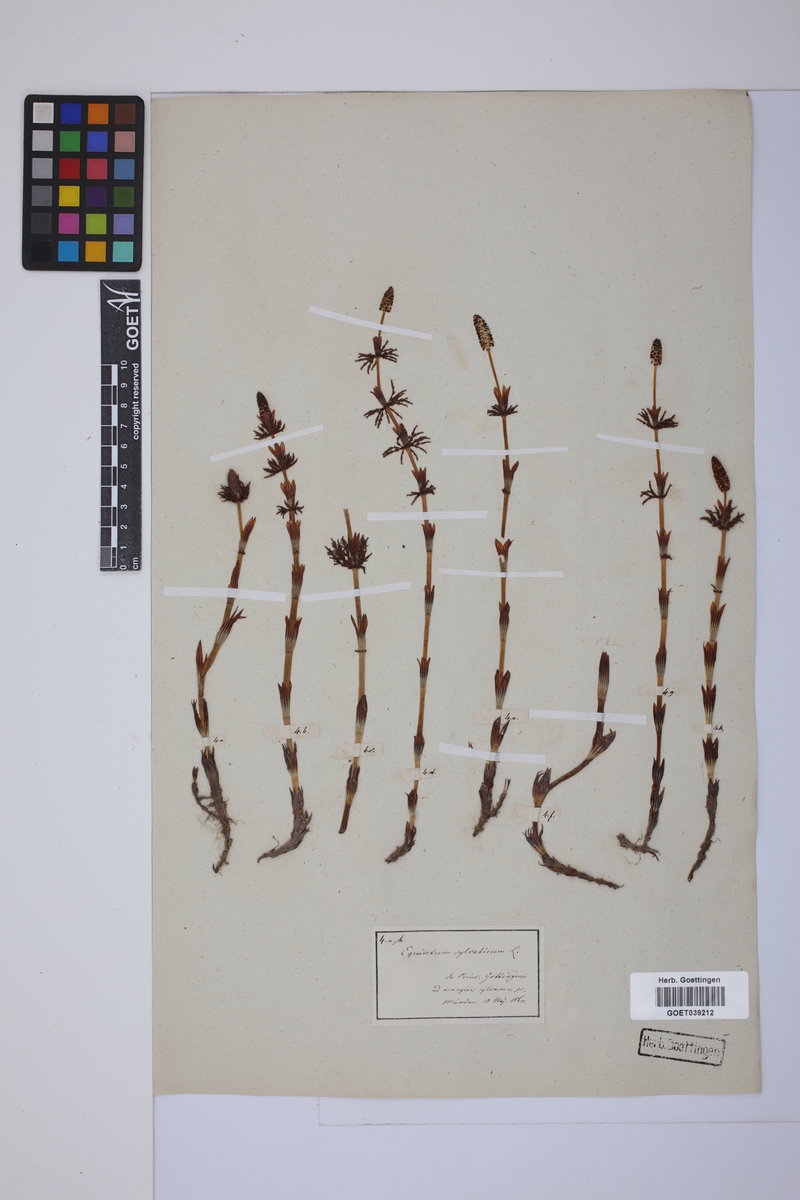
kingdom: Plantae
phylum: Tracheophyta
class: Polypodiopsida
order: Equisetales
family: Equisetaceae
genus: Equisetum
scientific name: Equisetum sylvaticum
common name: Wood horsetail
